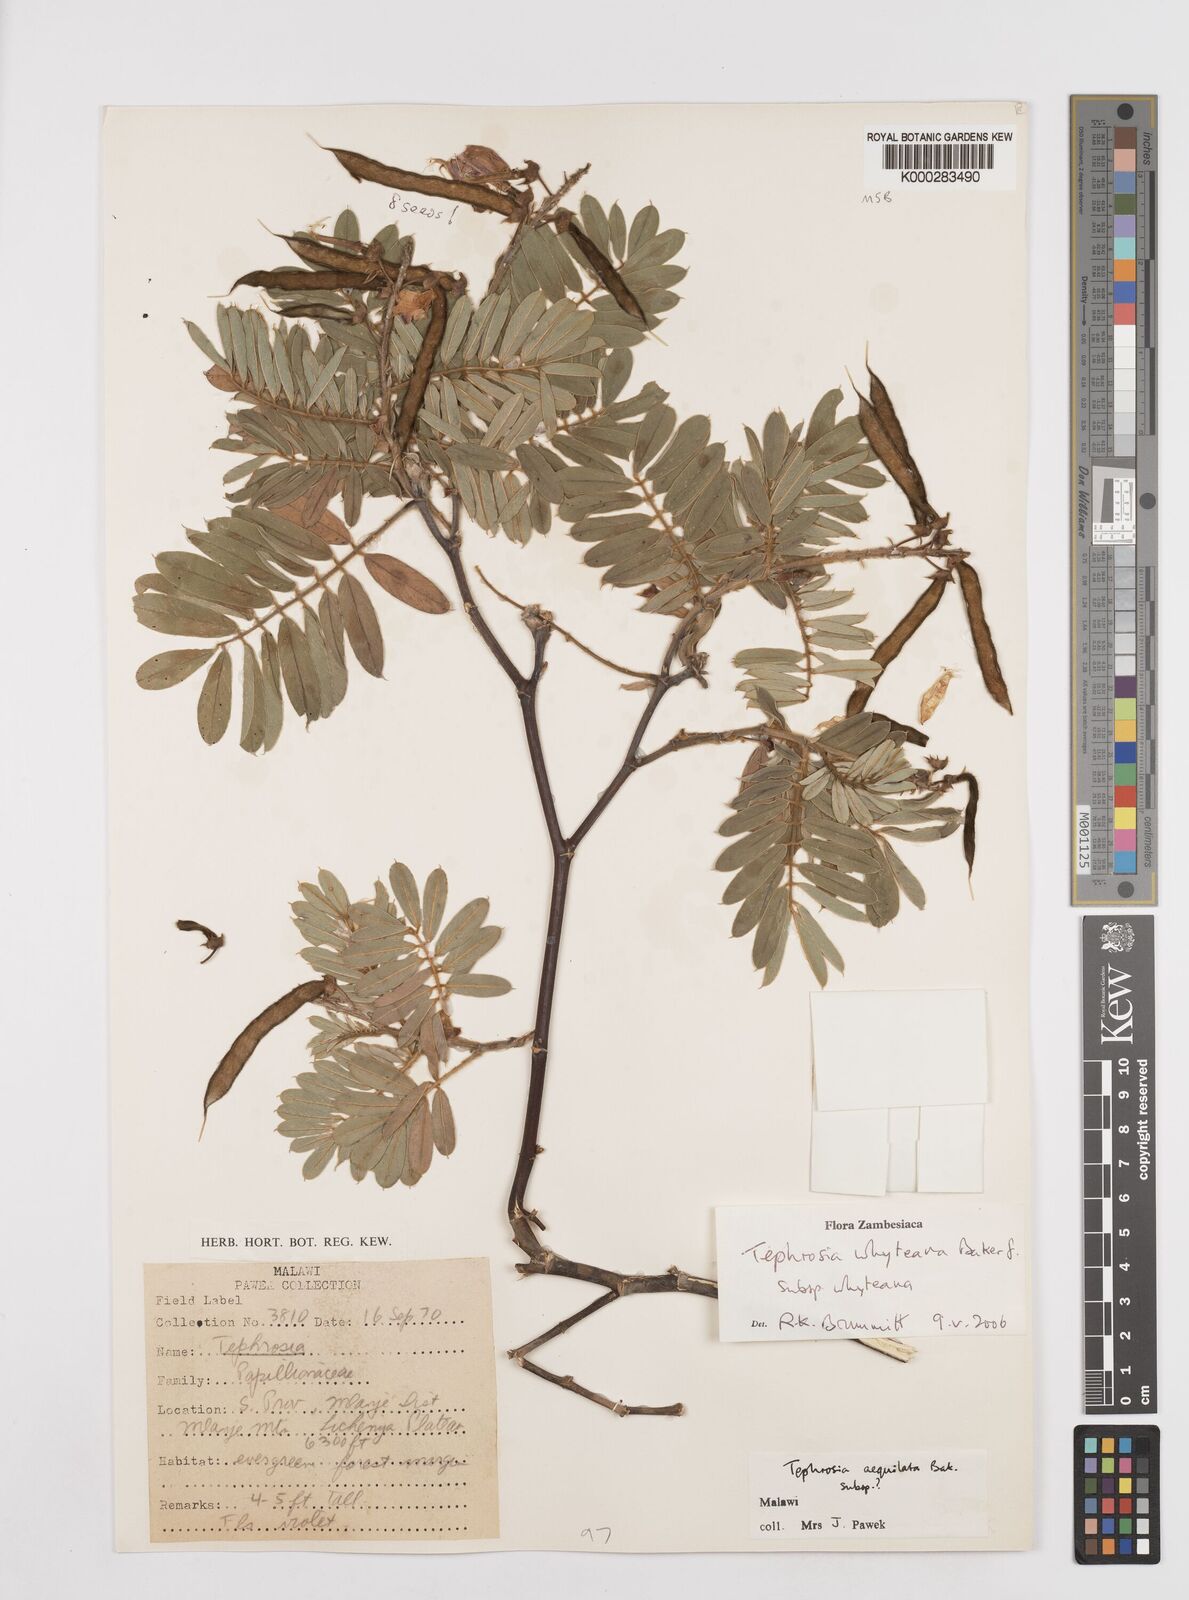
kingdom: Plantae
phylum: Tracheophyta
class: Magnoliopsida
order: Fabales
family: Fabaceae
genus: Tephrosia
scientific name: Tephrosia aequilata
